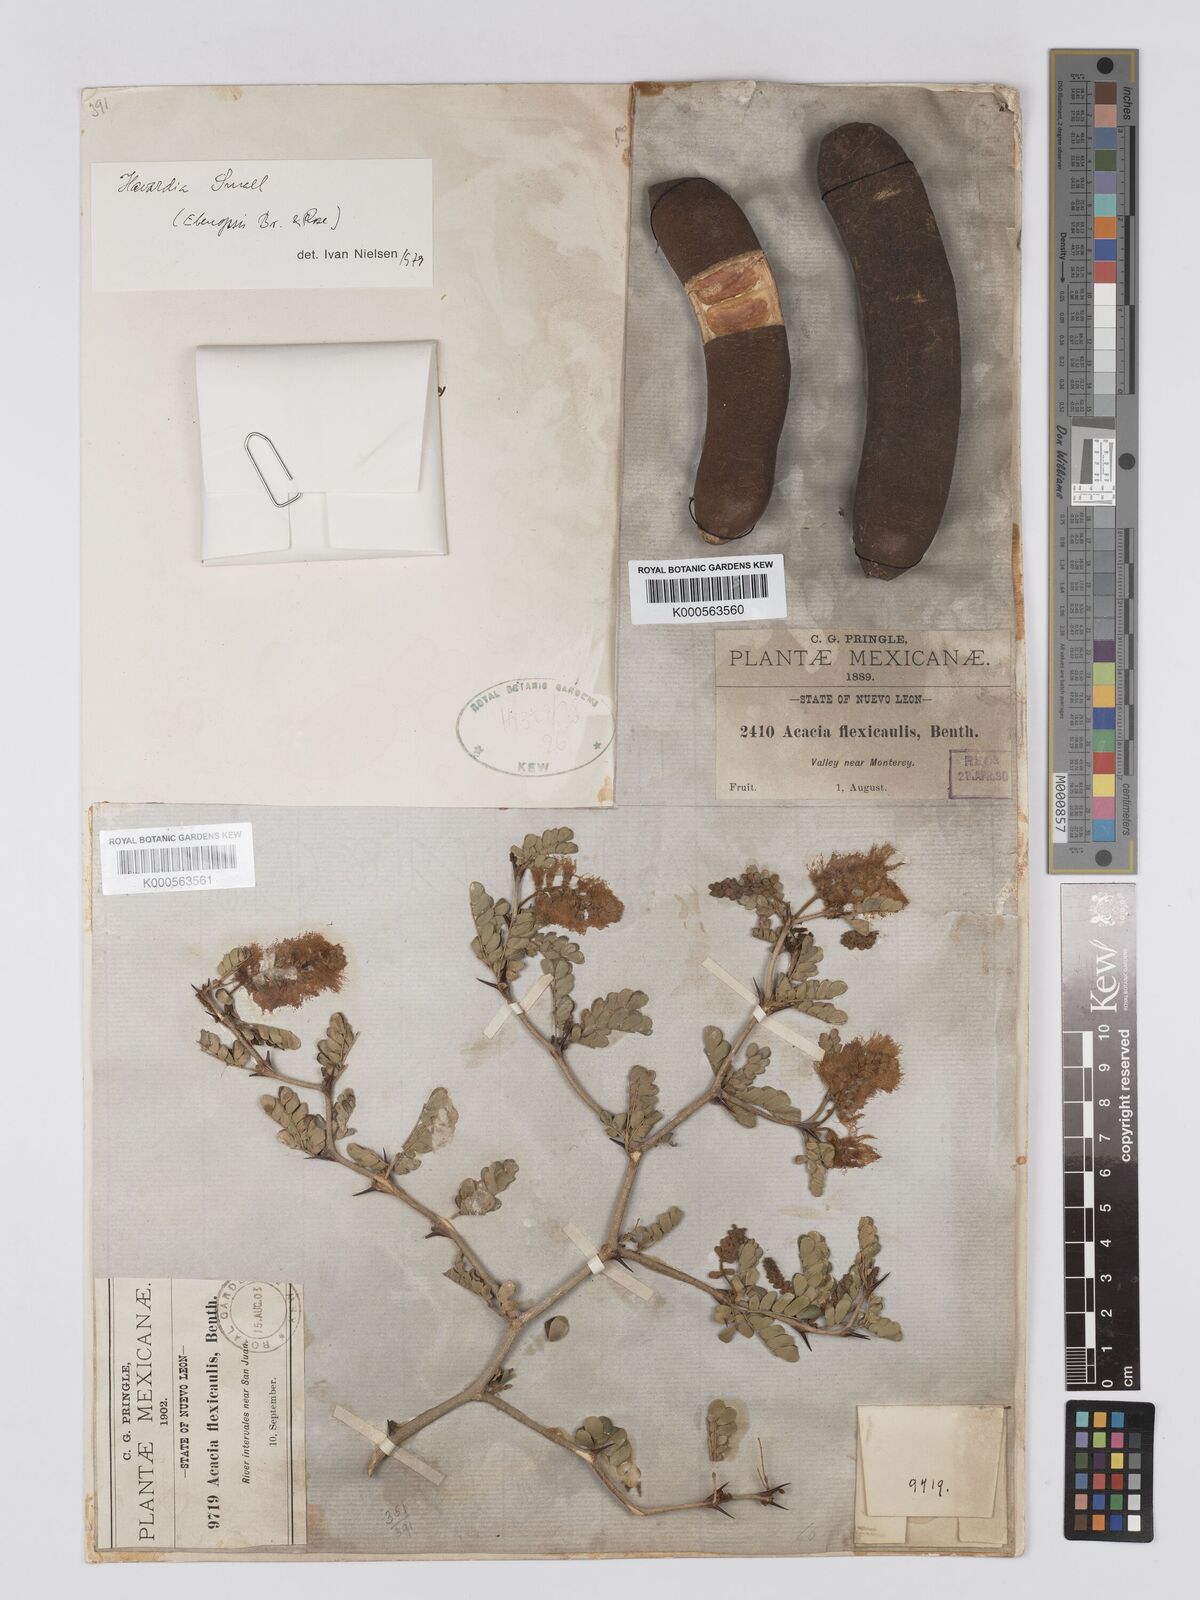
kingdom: Plantae
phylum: Tracheophyta
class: Magnoliopsida
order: Fabales
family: Fabaceae
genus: Ebenopsis
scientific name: Ebenopsis ebano
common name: Ebony blackbead
